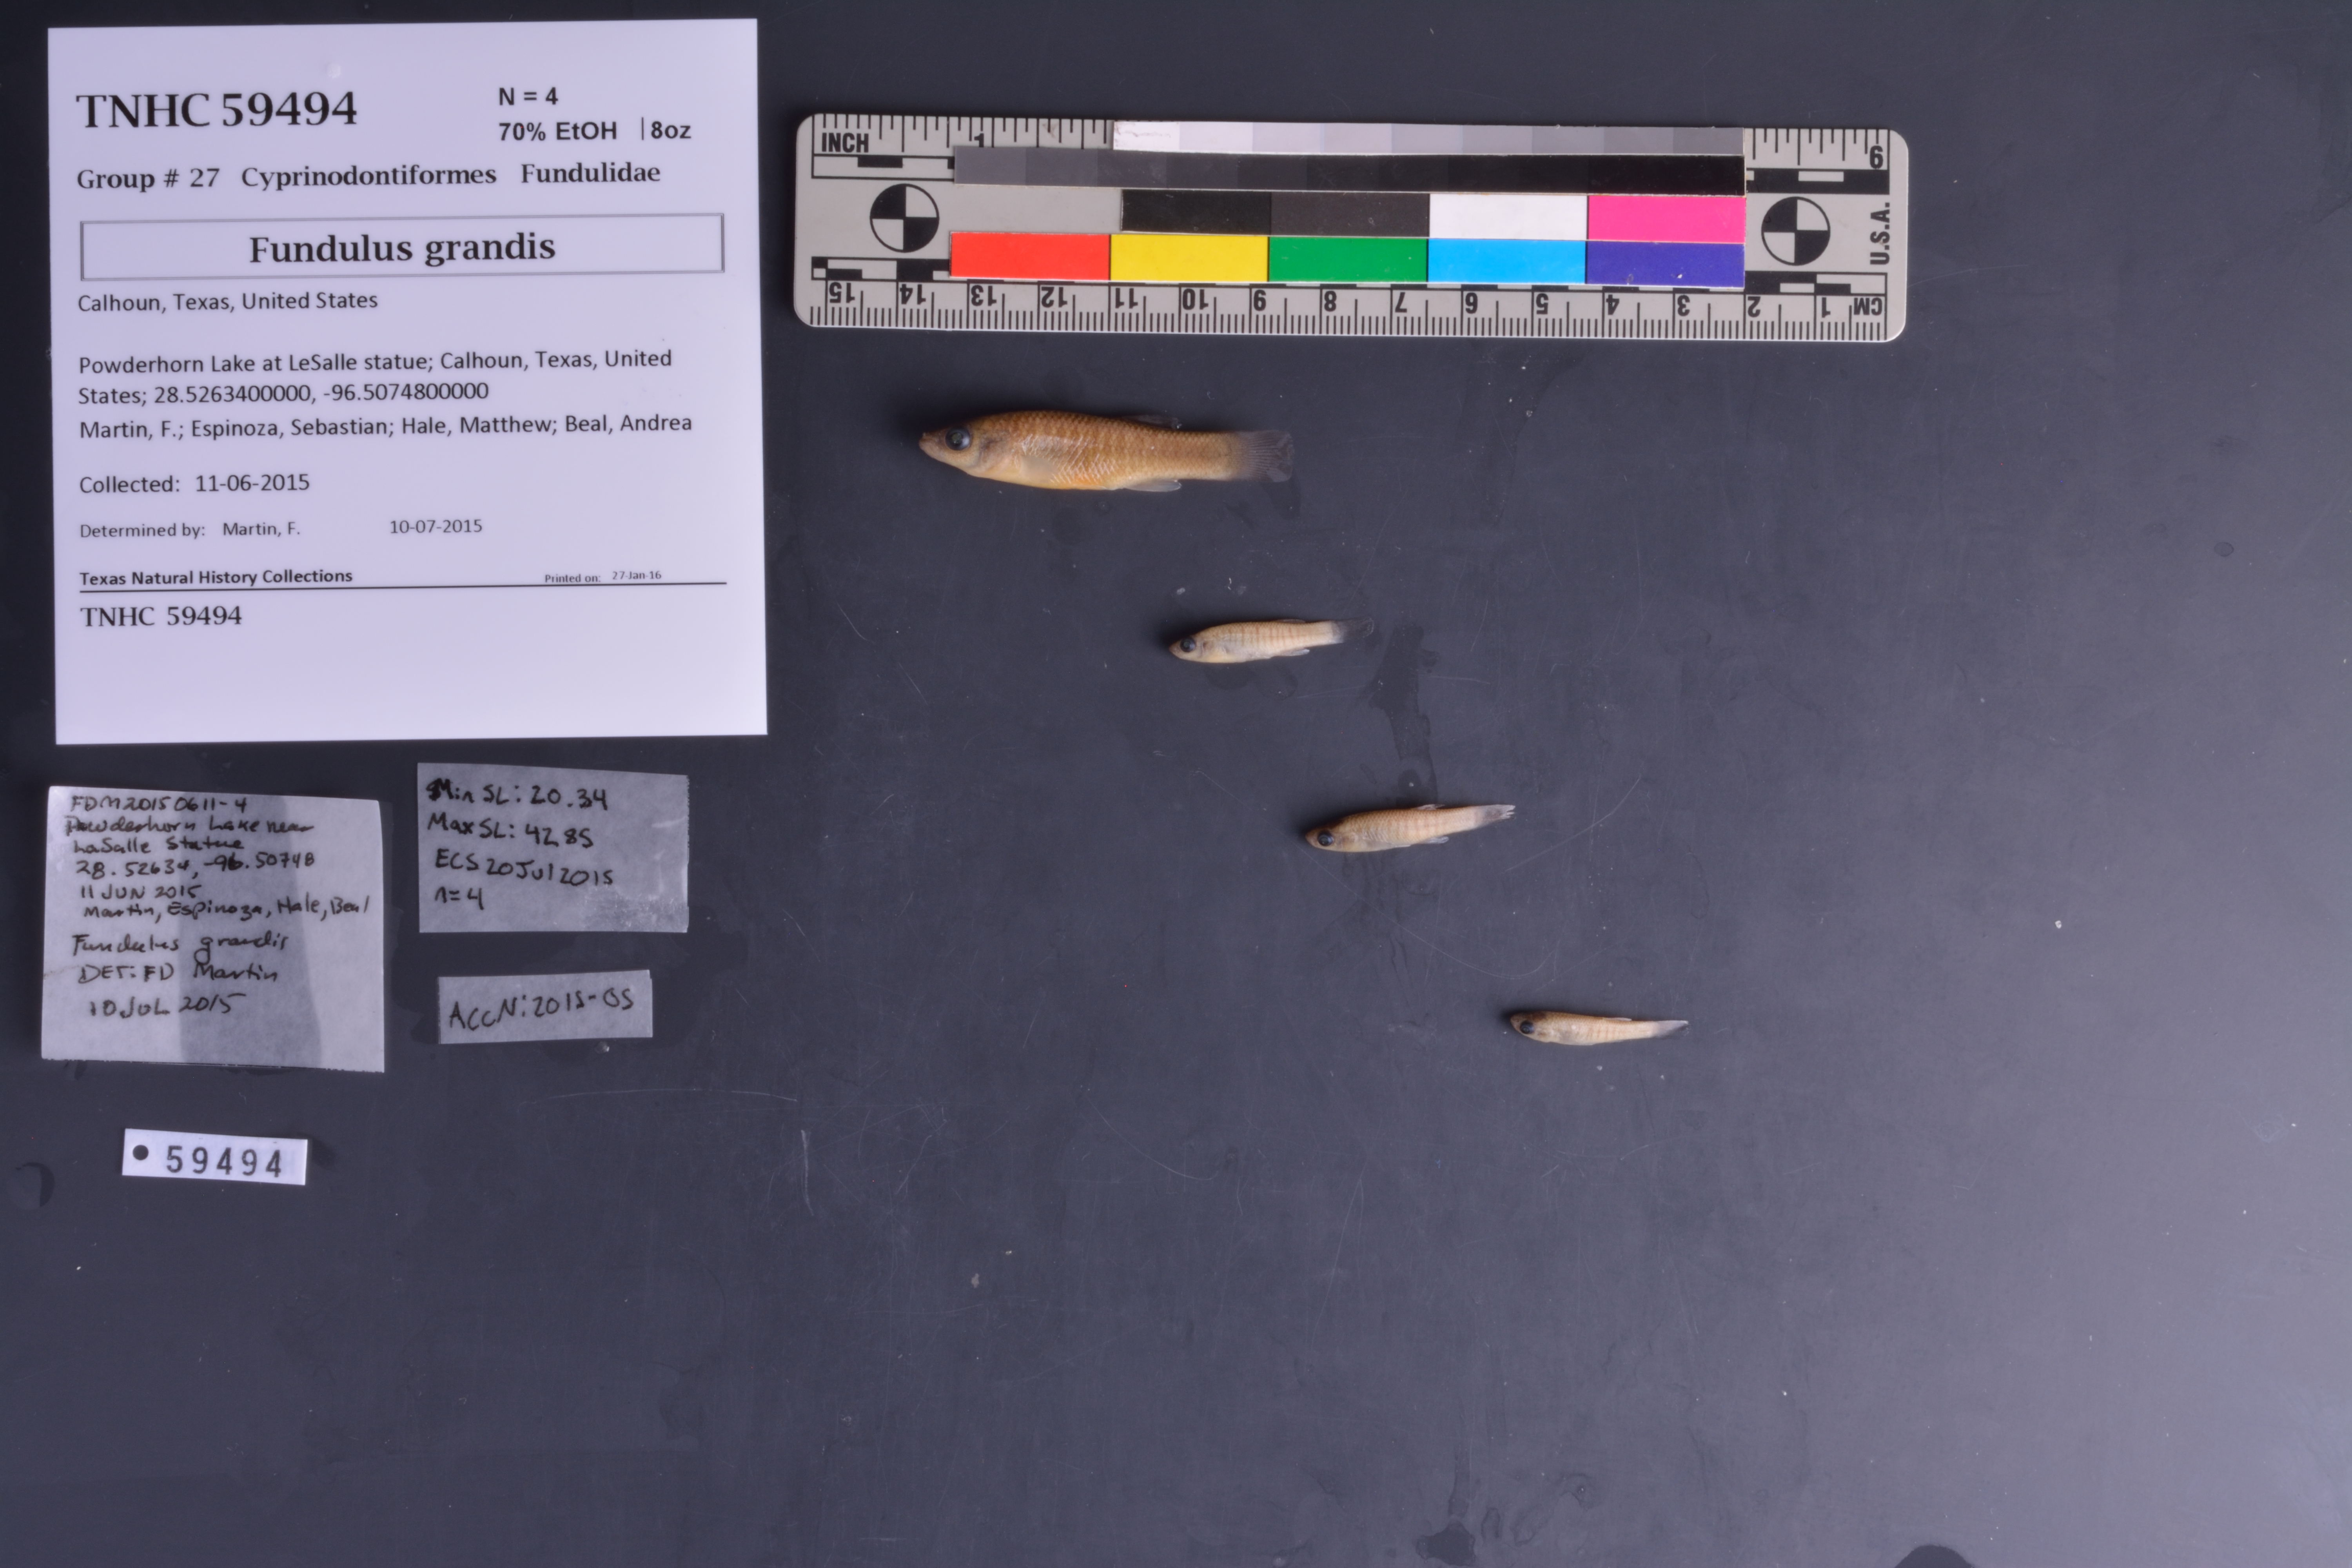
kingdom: Animalia
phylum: Chordata
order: Cyprinodontiformes
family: Fundulidae
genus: Fundulus
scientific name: Fundulus grandis
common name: Gulf killifish
